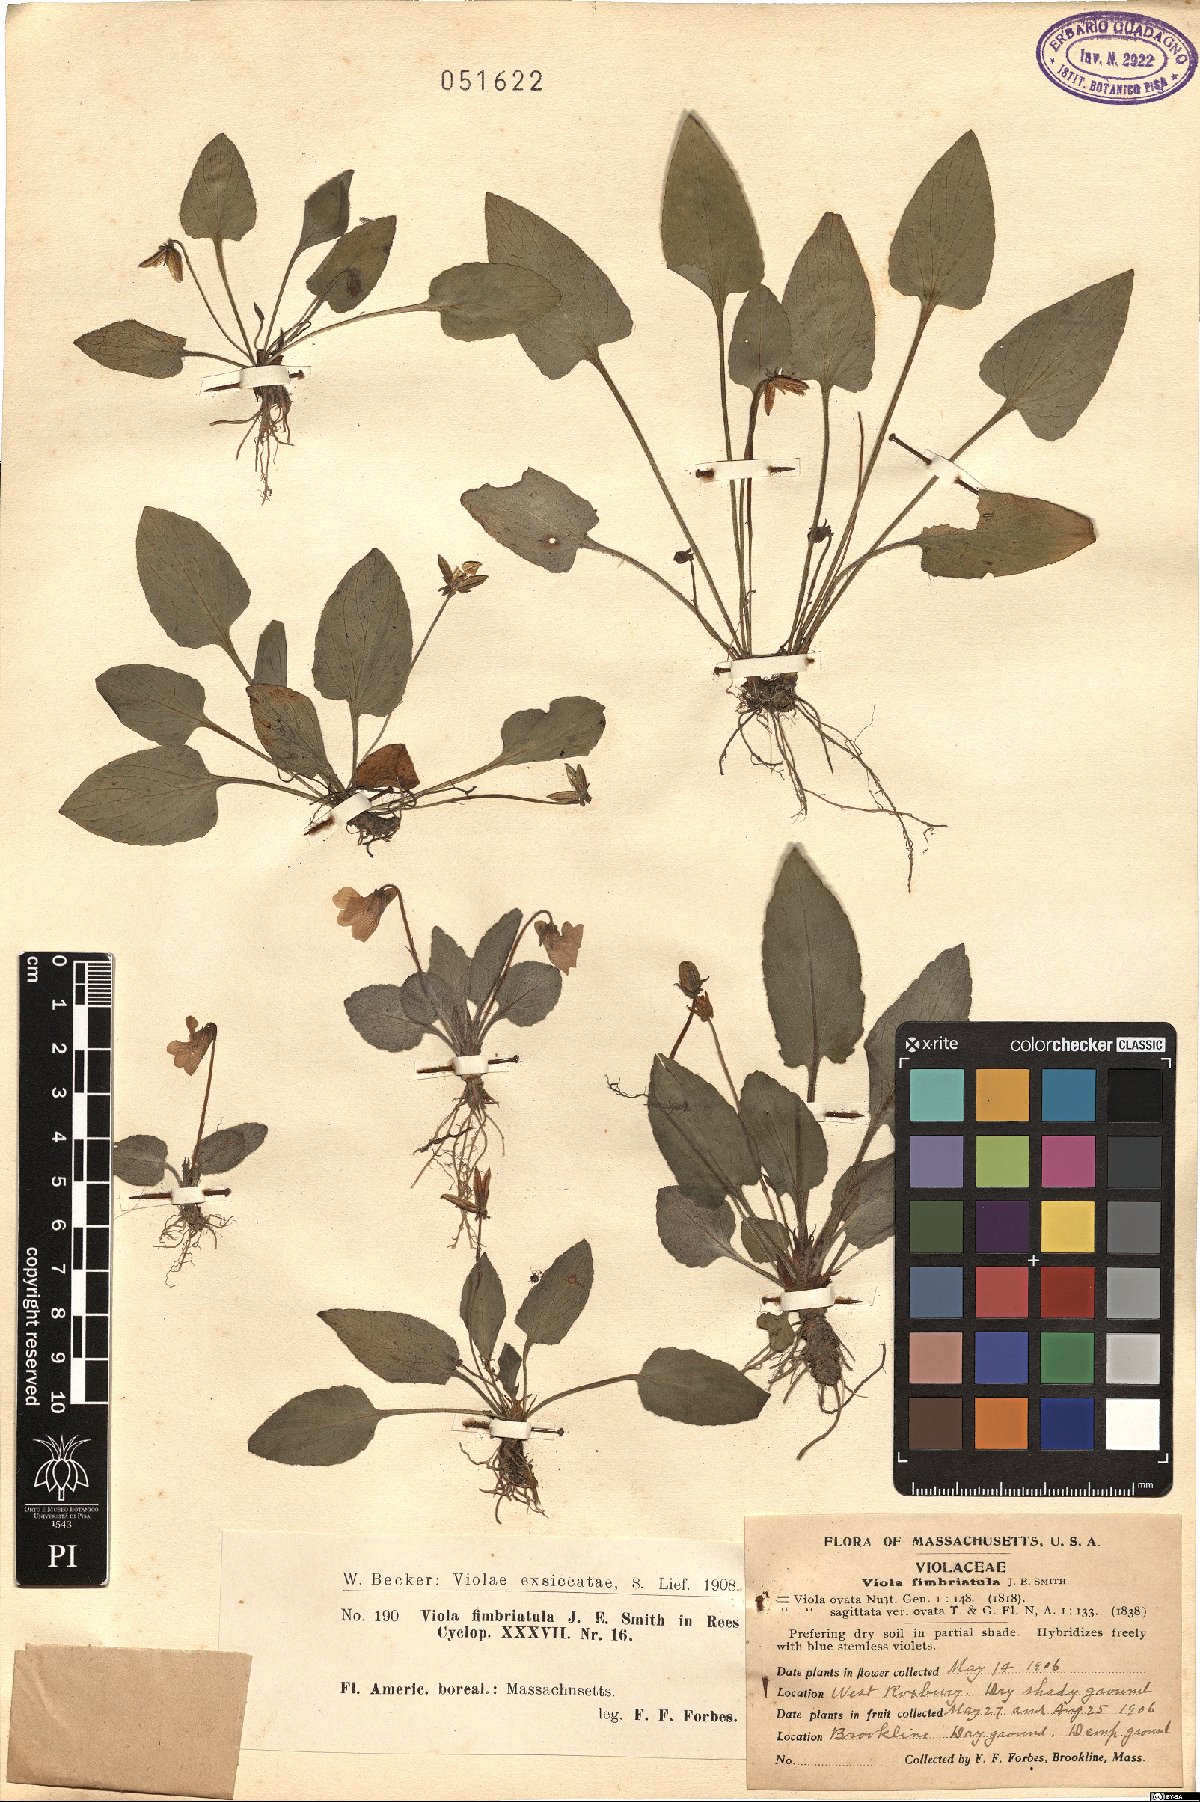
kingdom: Plantae
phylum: Tracheophyta
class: Magnoliopsida
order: Malpighiales
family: Violaceae
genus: Viola
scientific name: Viola fimbriatula
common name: Sand violet
